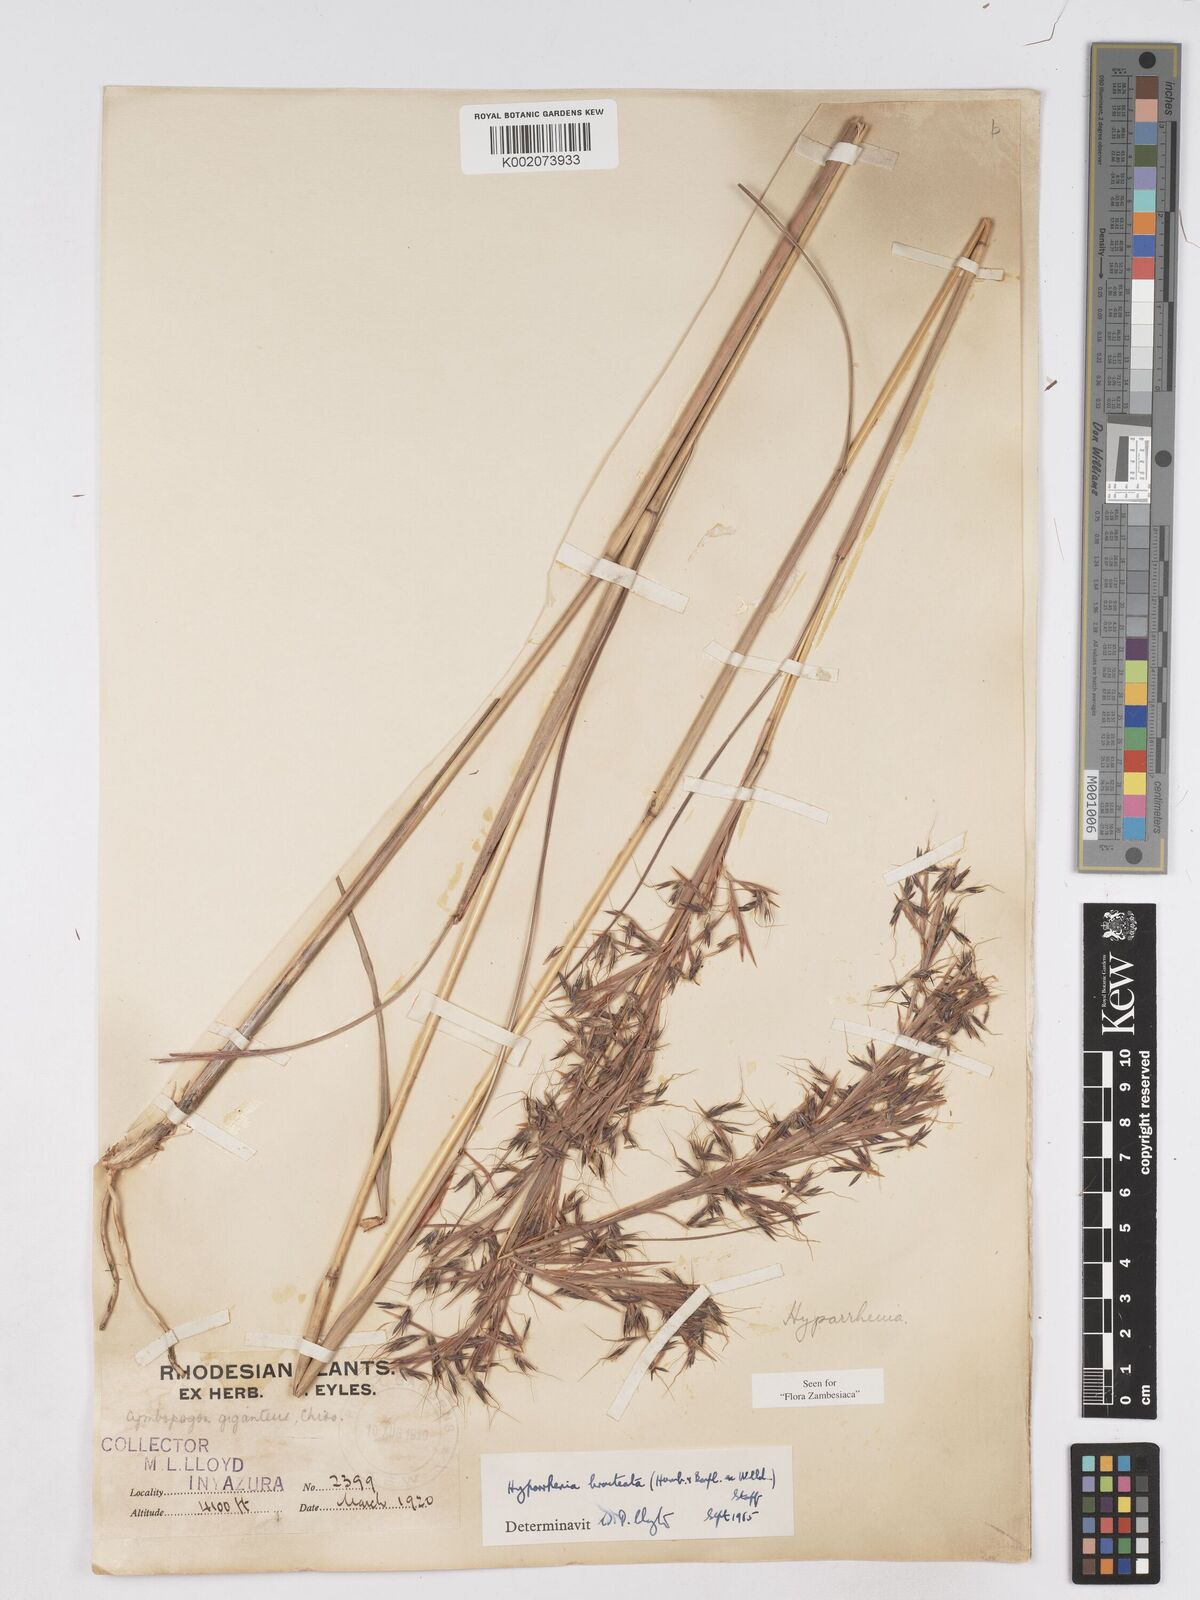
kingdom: Plantae
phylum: Tracheophyta
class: Liliopsida
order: Poales
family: Poaceae
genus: Hyparrhenia
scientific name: Hyparrhenia bracteata
